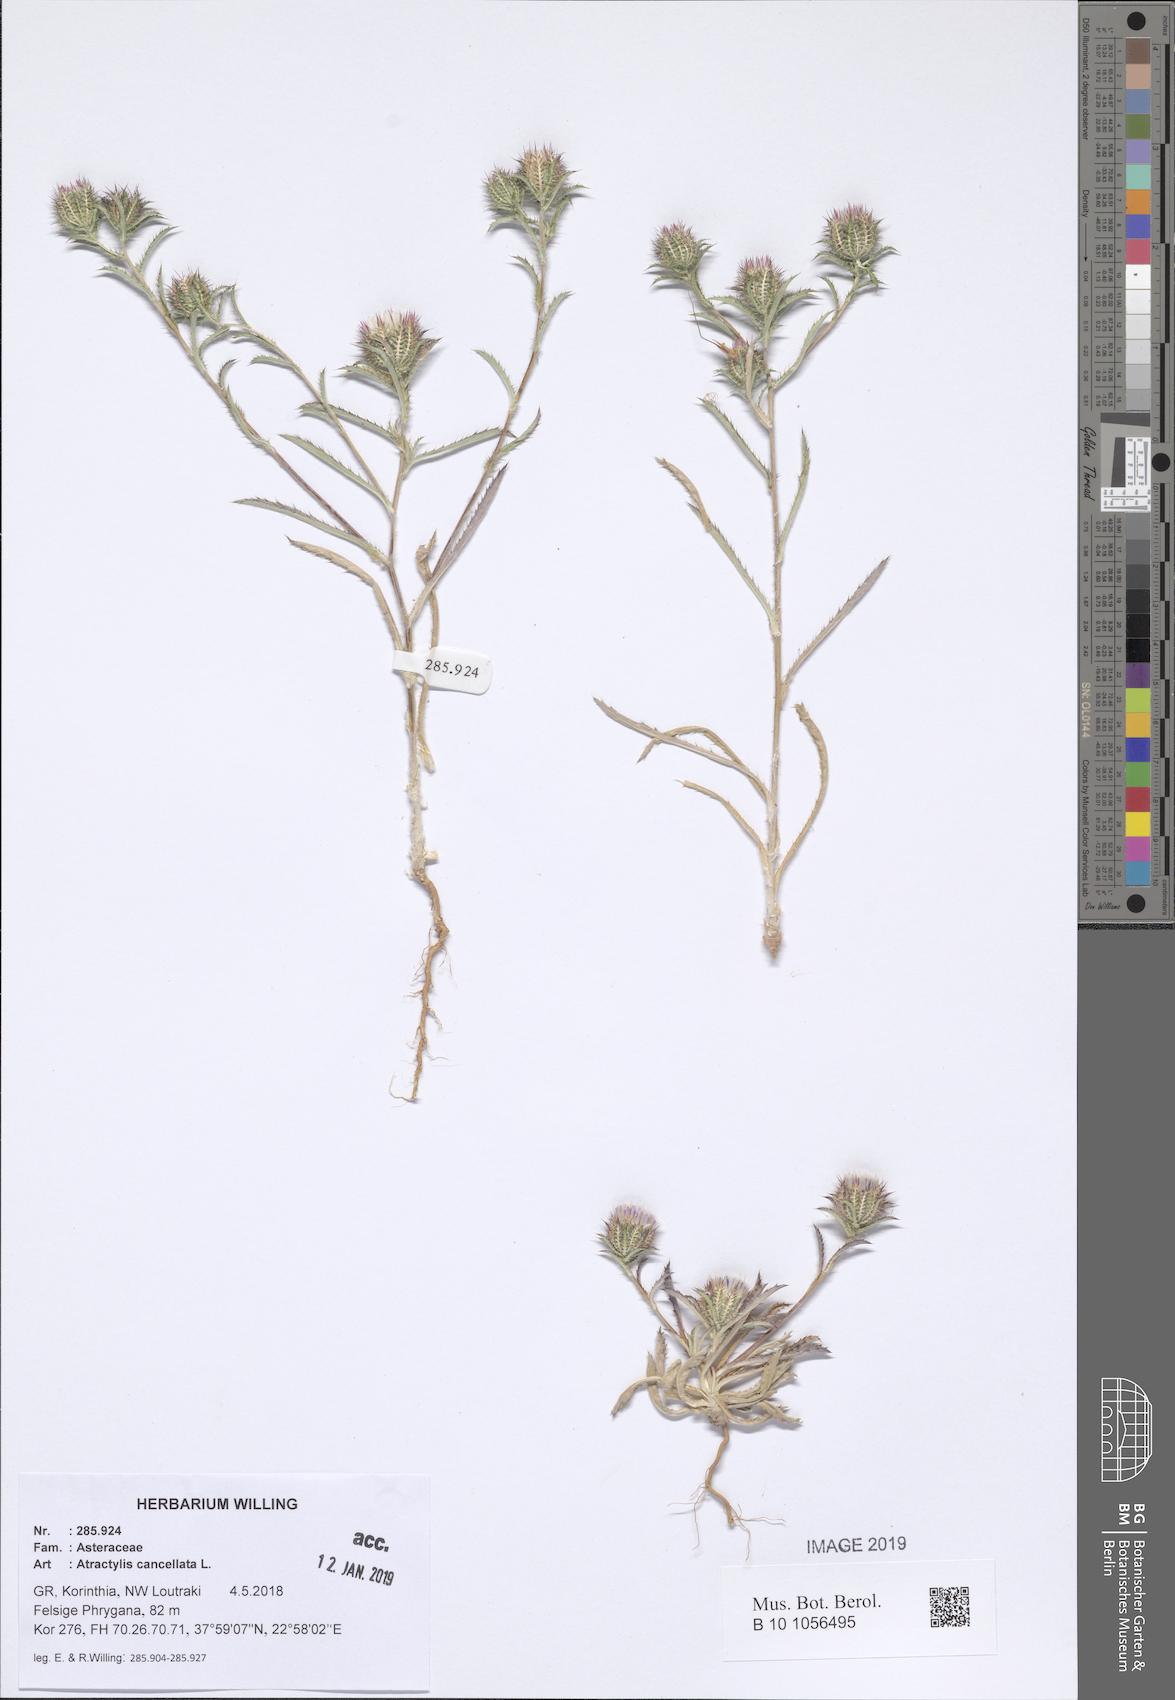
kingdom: Plantae
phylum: Tracheophyta
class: Magnoliopsida
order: Asterales
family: Asteraceae
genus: Atractylis
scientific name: Atractylis cancellata
